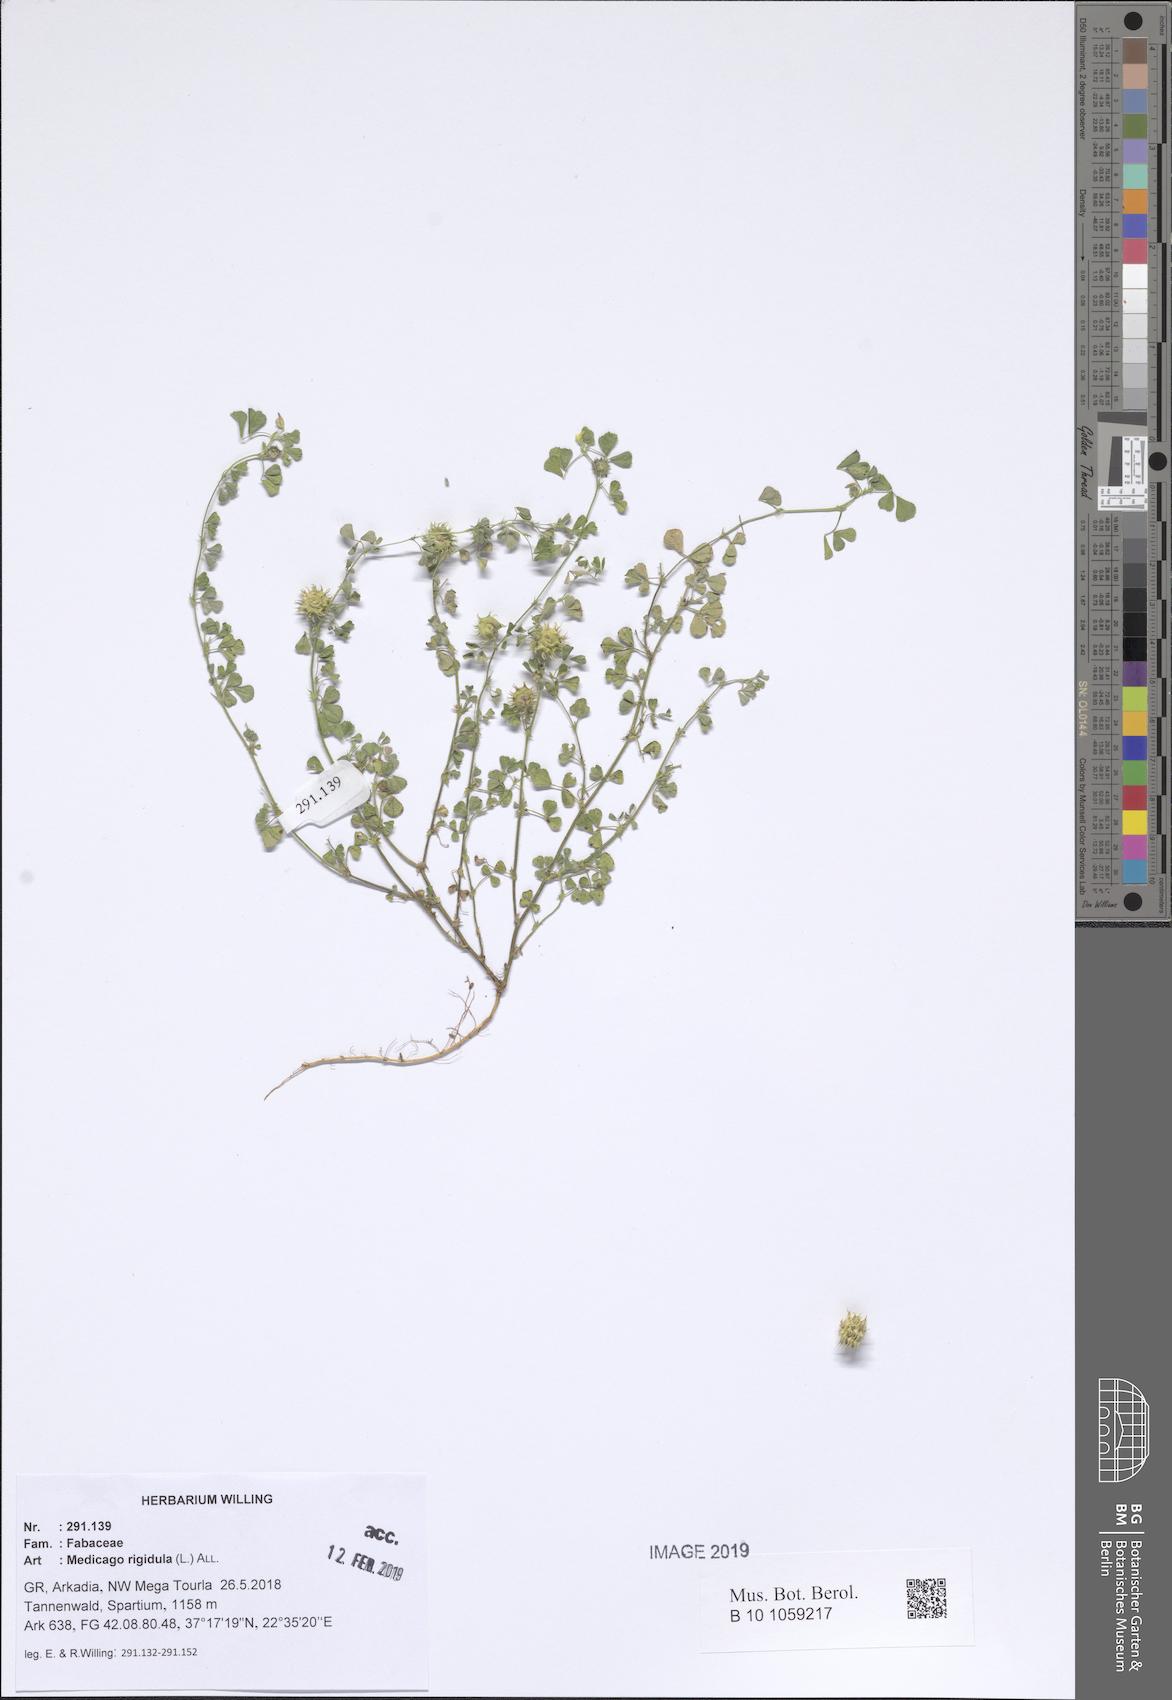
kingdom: Plantae
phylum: Tracheophyta
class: Magnoliopsida
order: Fabales
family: Fabaceae
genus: Medicago
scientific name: Medicago rigidula
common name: Tifton medic
